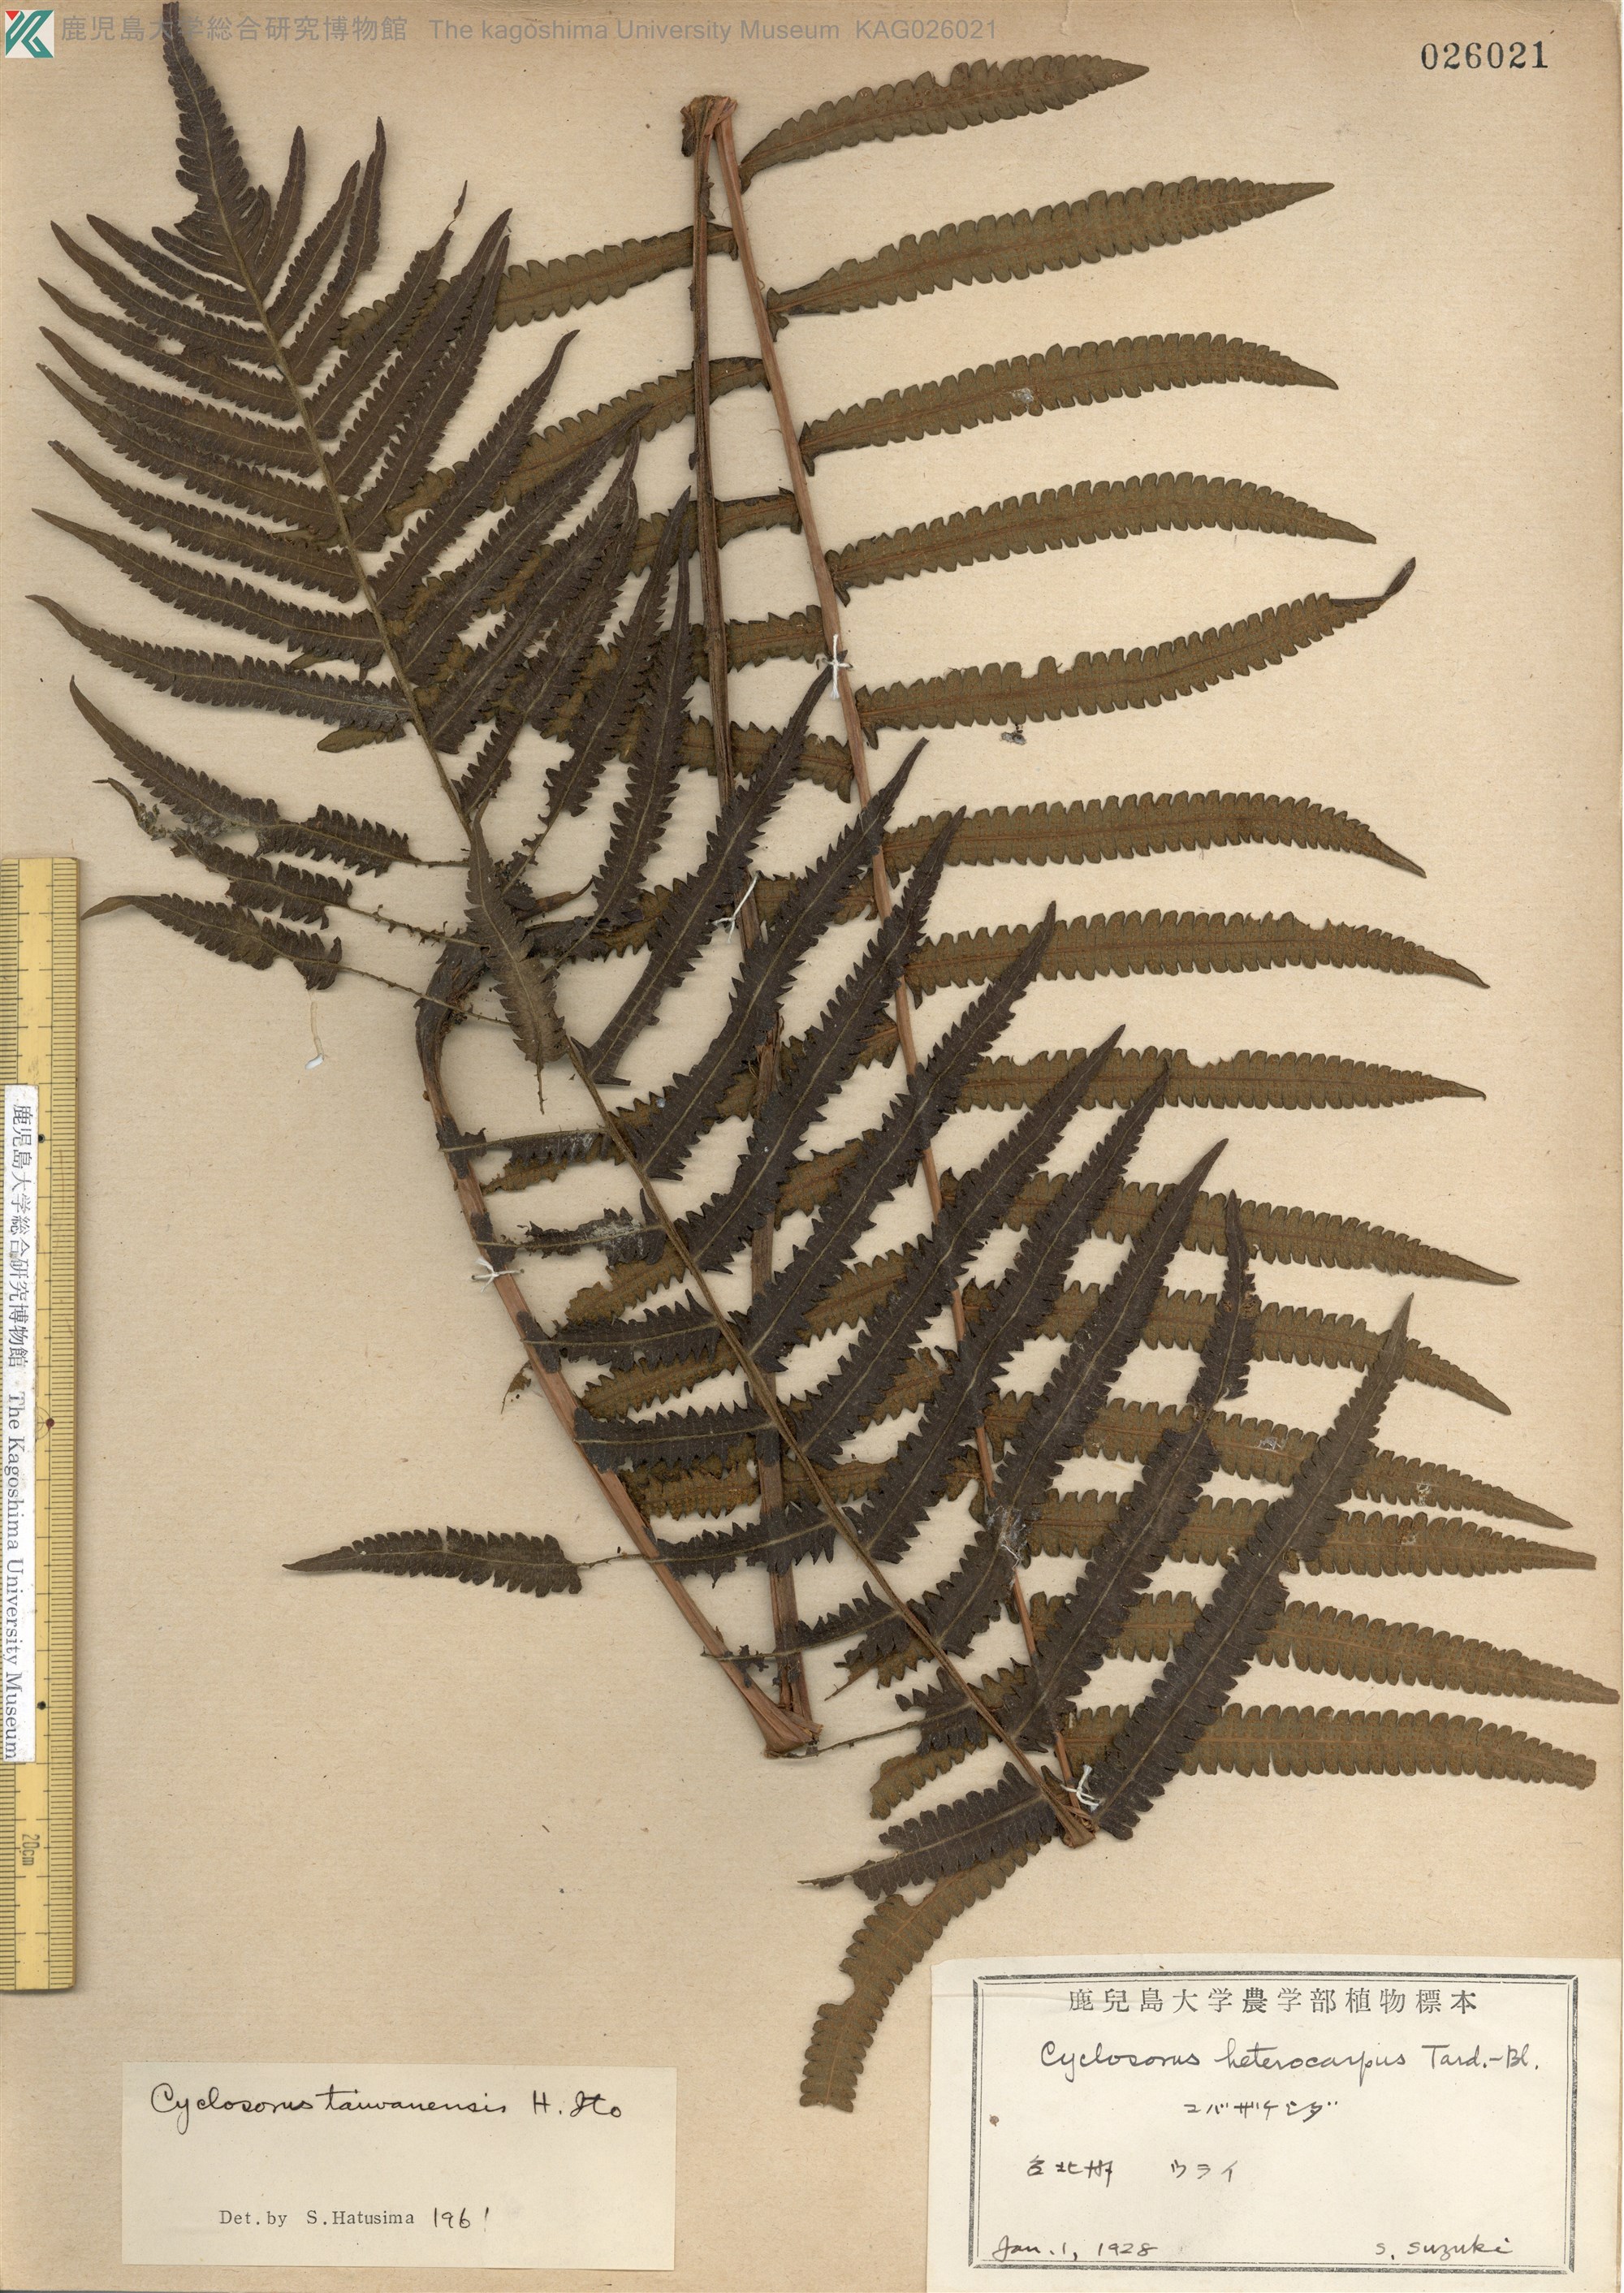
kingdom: Plantae
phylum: Tracheophyta
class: Polypodiopsida
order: Polypodiales
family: Thelypteridaceae
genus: Sphaerostephanos
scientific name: Sphaerostephanos taiwanensis
